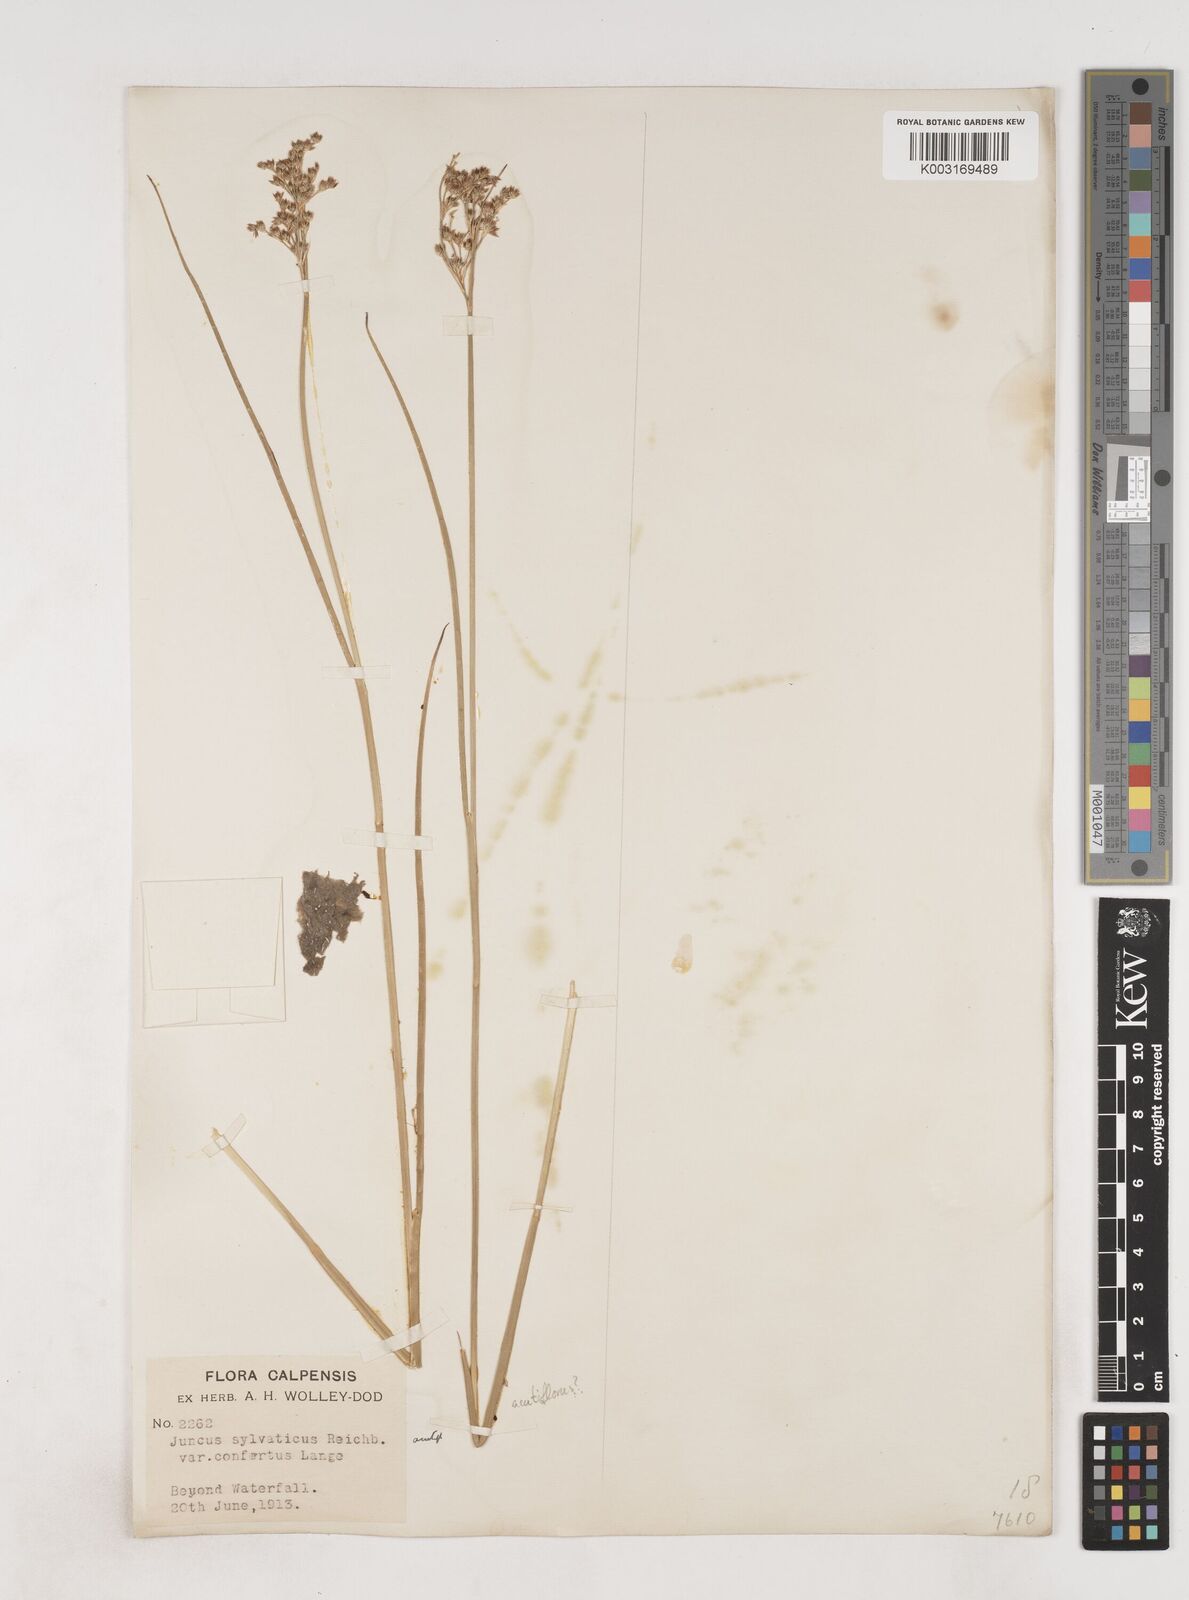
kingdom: Plantae
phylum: Tracheophyta
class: Liliopsida
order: Poales
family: Juncaceae
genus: Juncus
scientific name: Juncus acutiflorus
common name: Sharp-flowered rush
